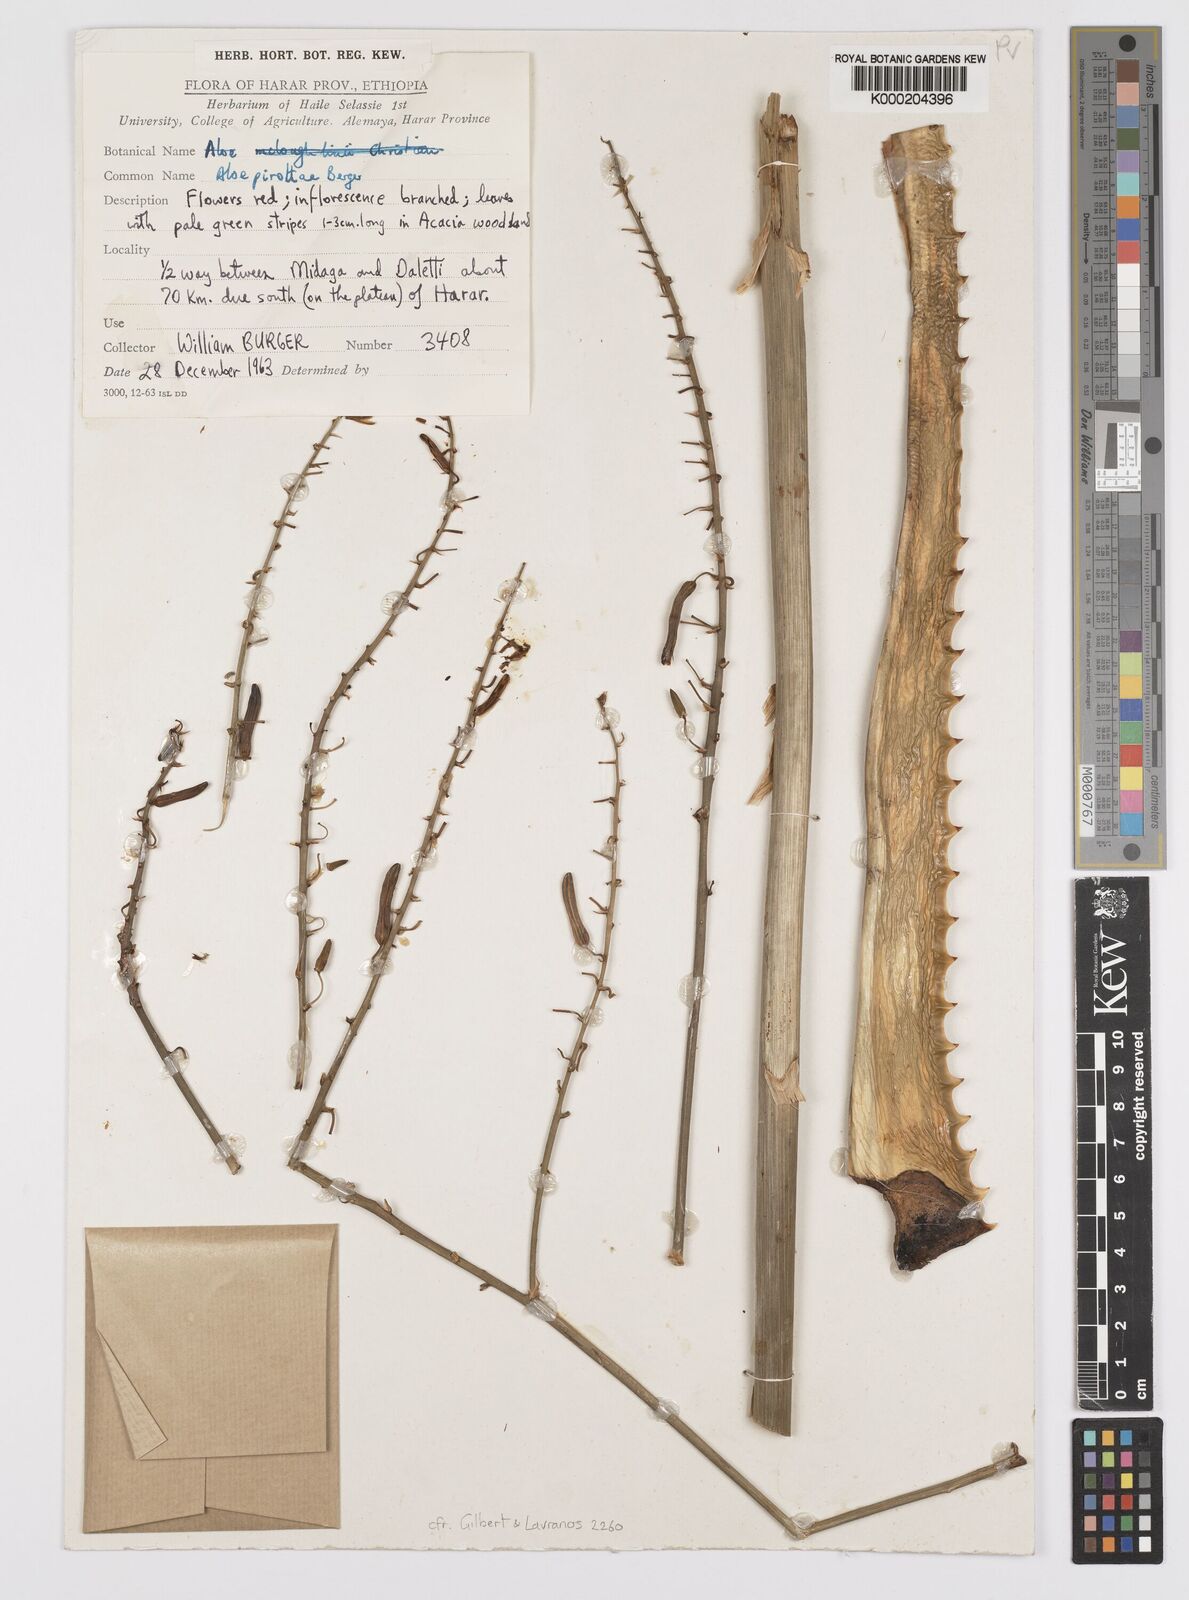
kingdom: Plantae
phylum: Tracheophyta
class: Liliopsida
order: Asparagales
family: Asphodelaceae
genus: Aloe
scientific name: Aloe pirottae
